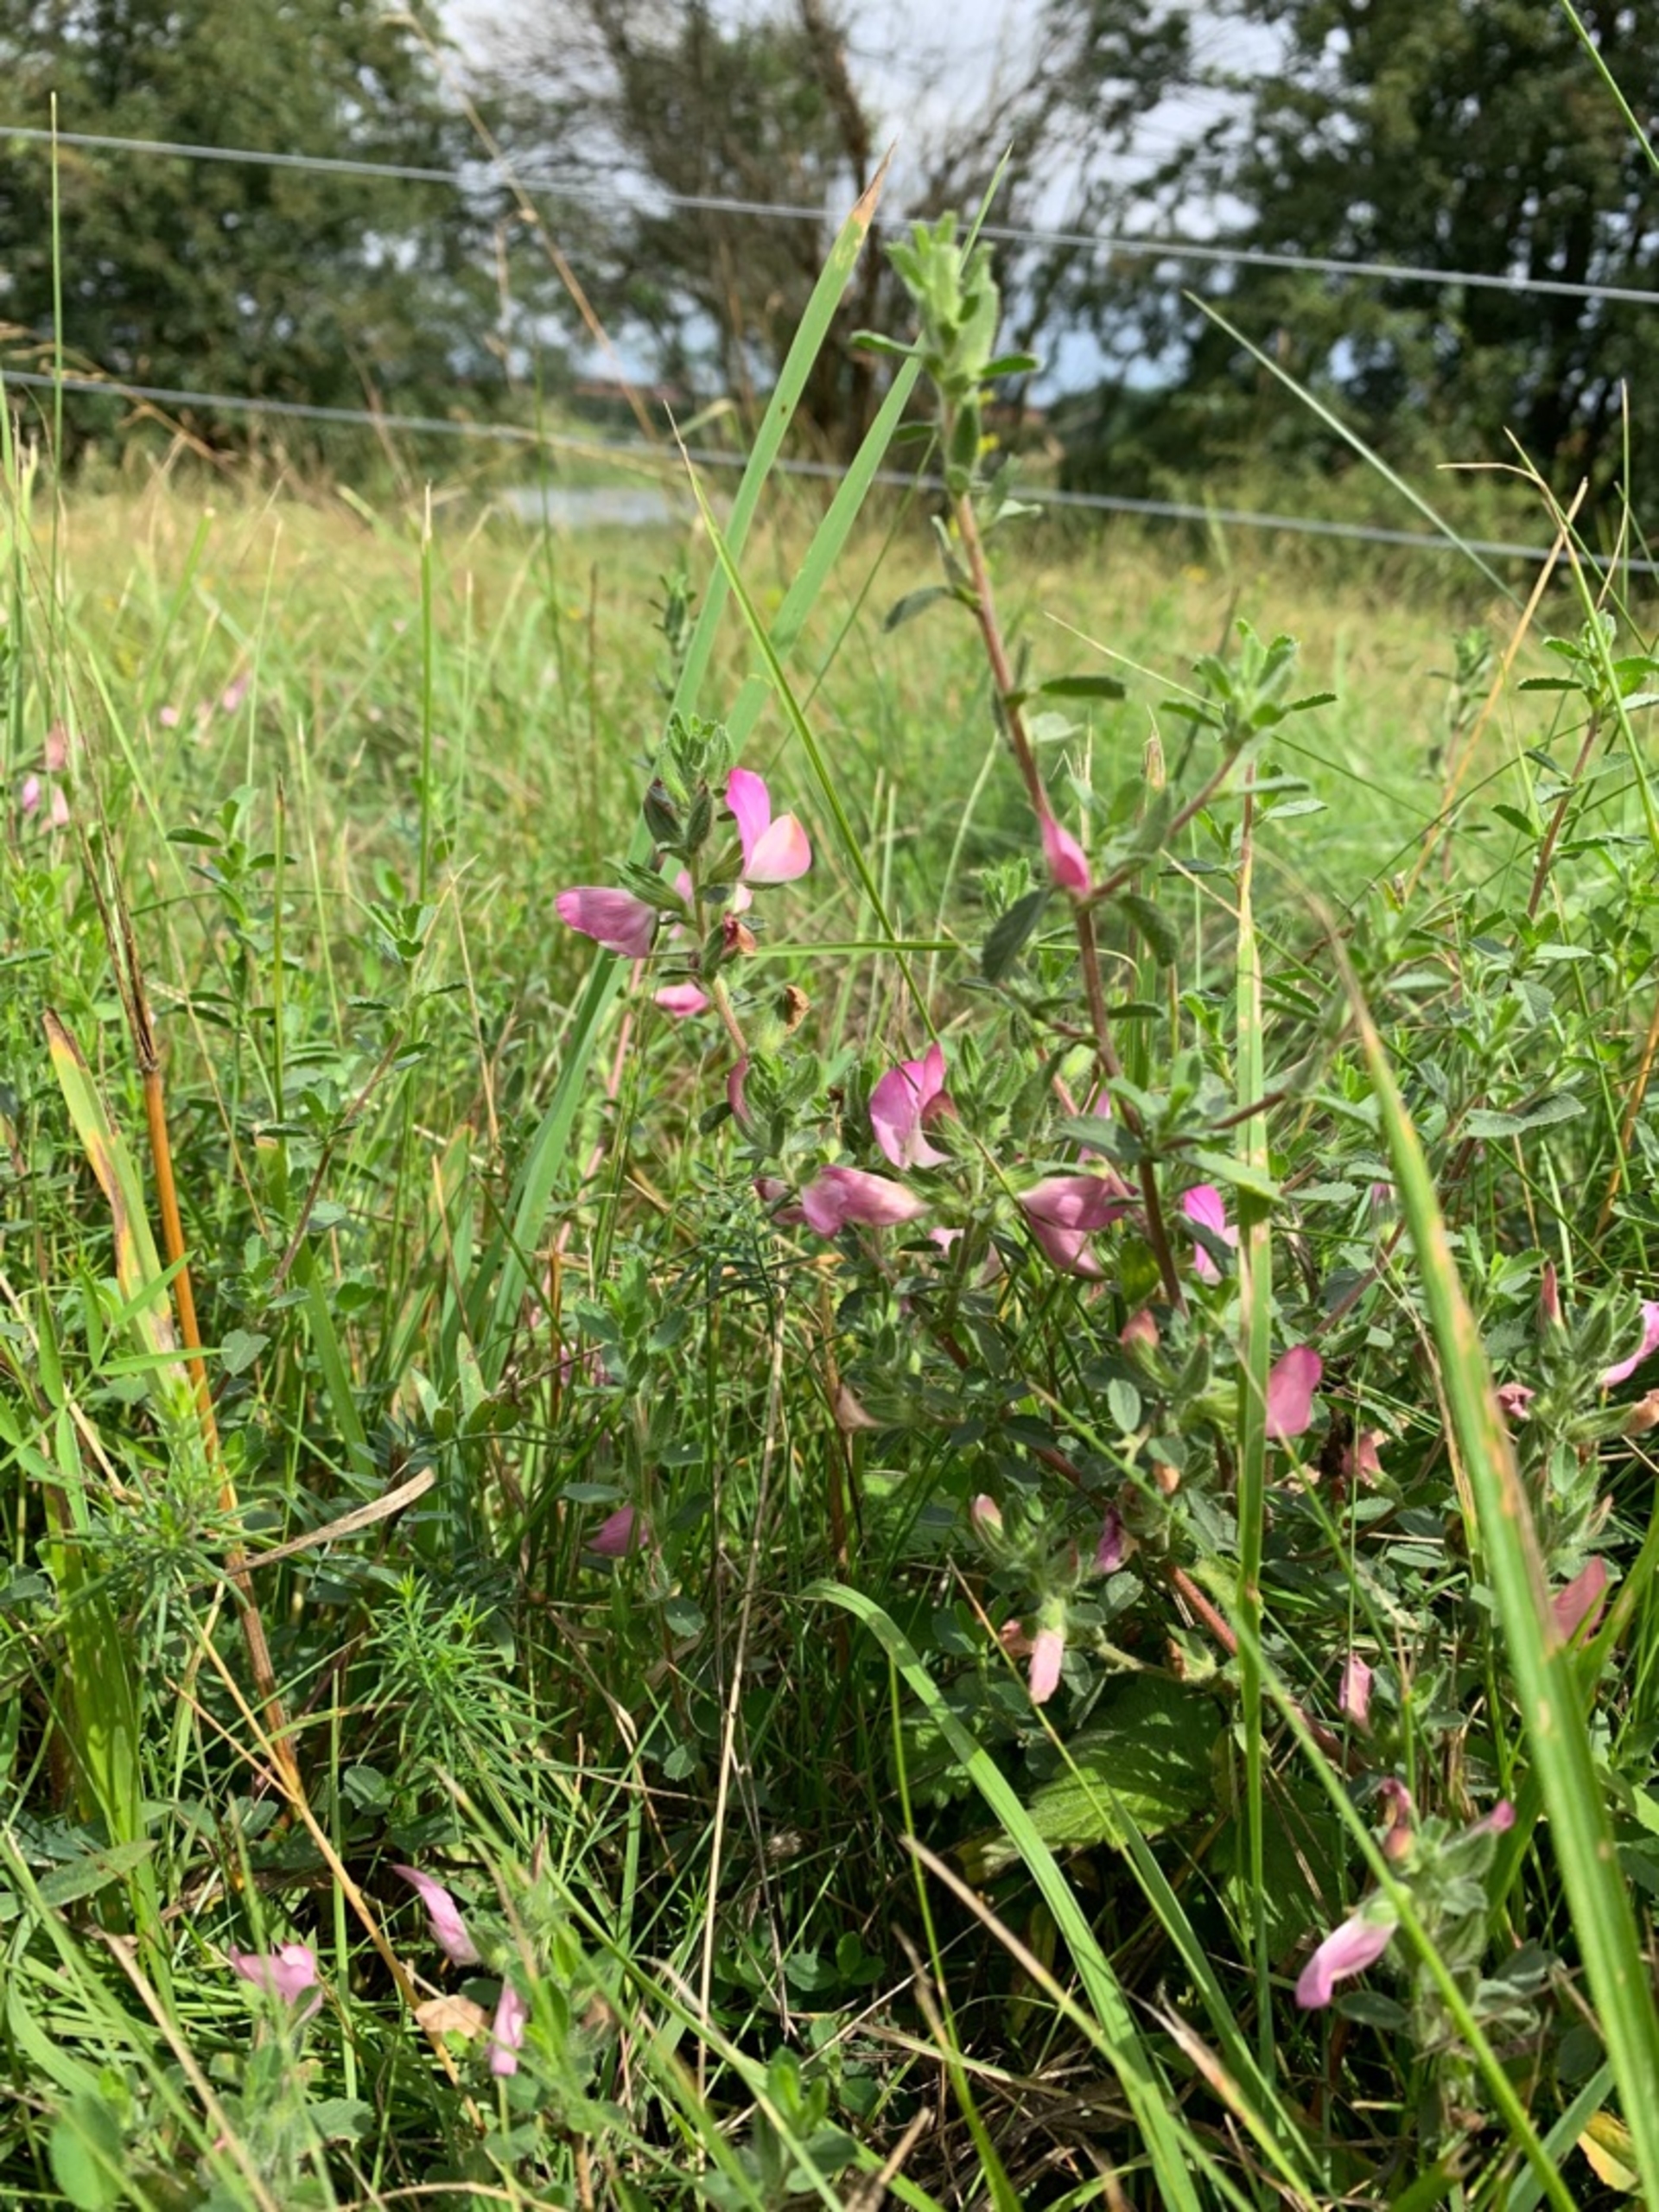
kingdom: Plantae
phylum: Tracheophyta
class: Magnoliopsida
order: Fabales
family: Fabaceae
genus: Ononis
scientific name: Ononis spinosa
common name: Mark-krageklo
